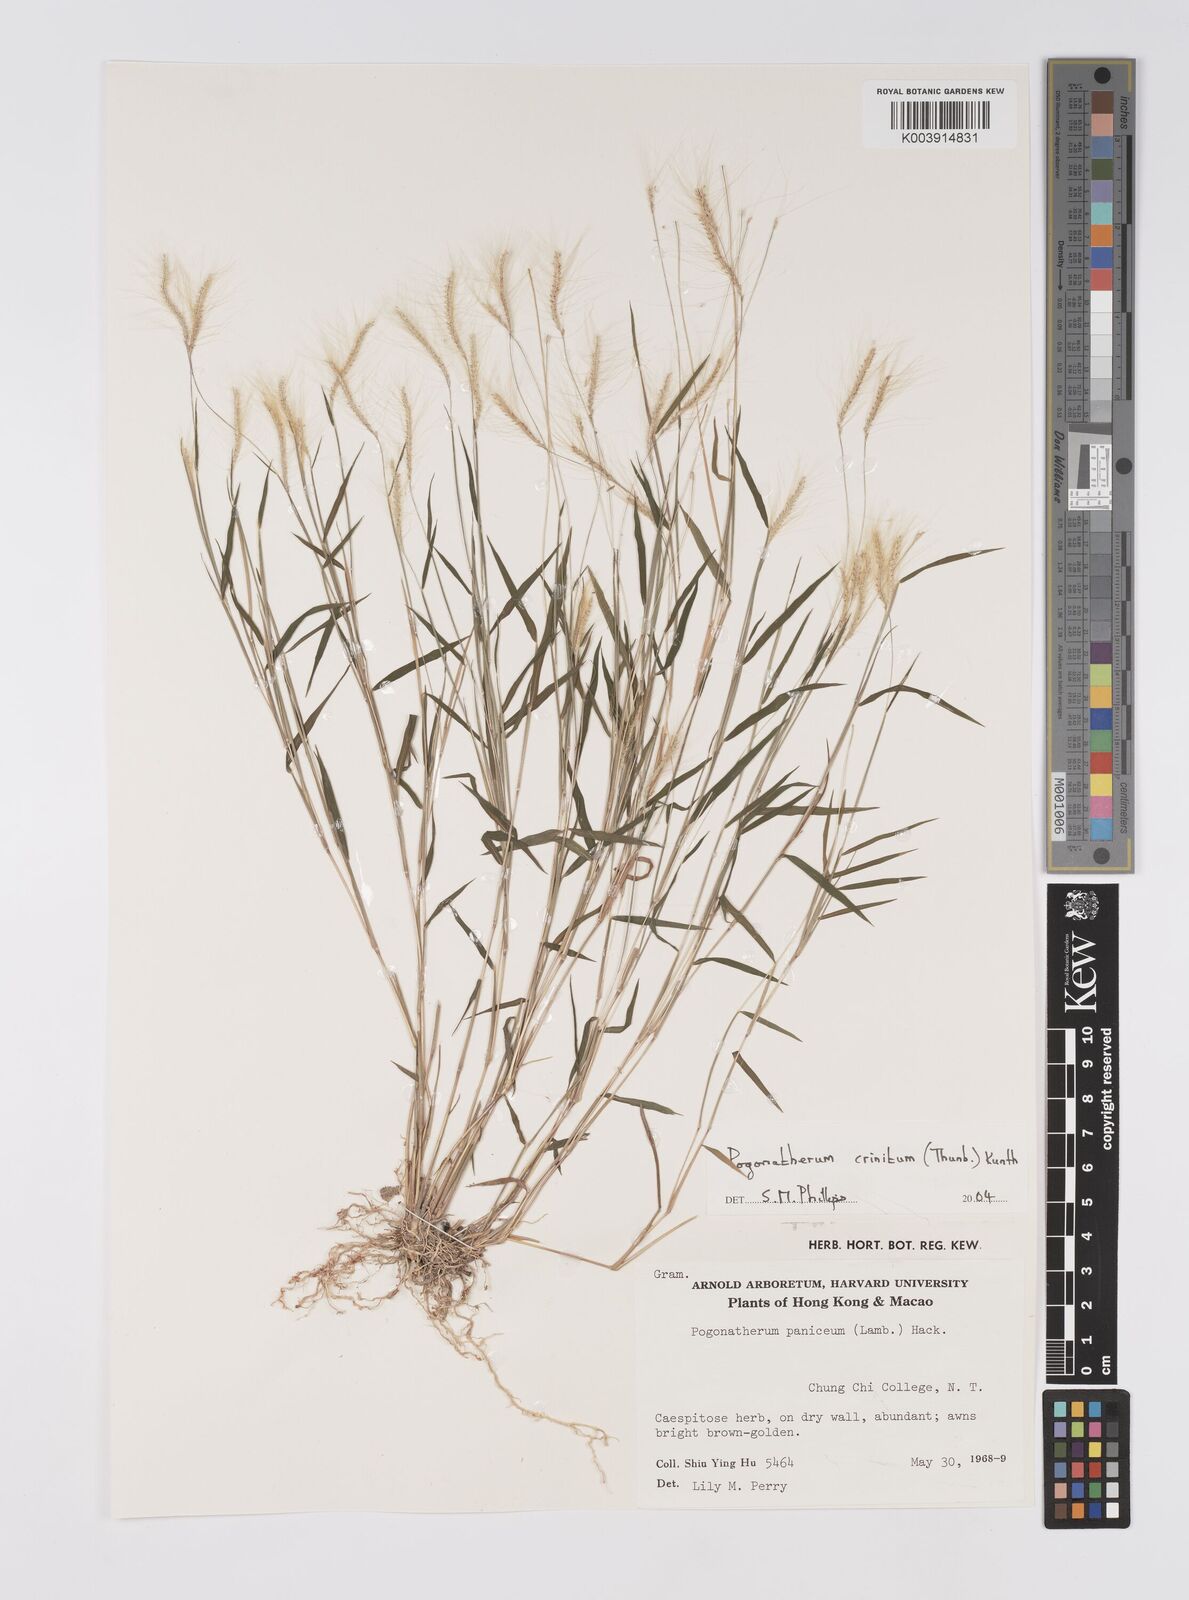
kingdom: Plantae
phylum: Tracheophyta
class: Liliopsida
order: Poales
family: Poaceae
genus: Pogonatherum
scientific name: Pogonatherum crinitum
